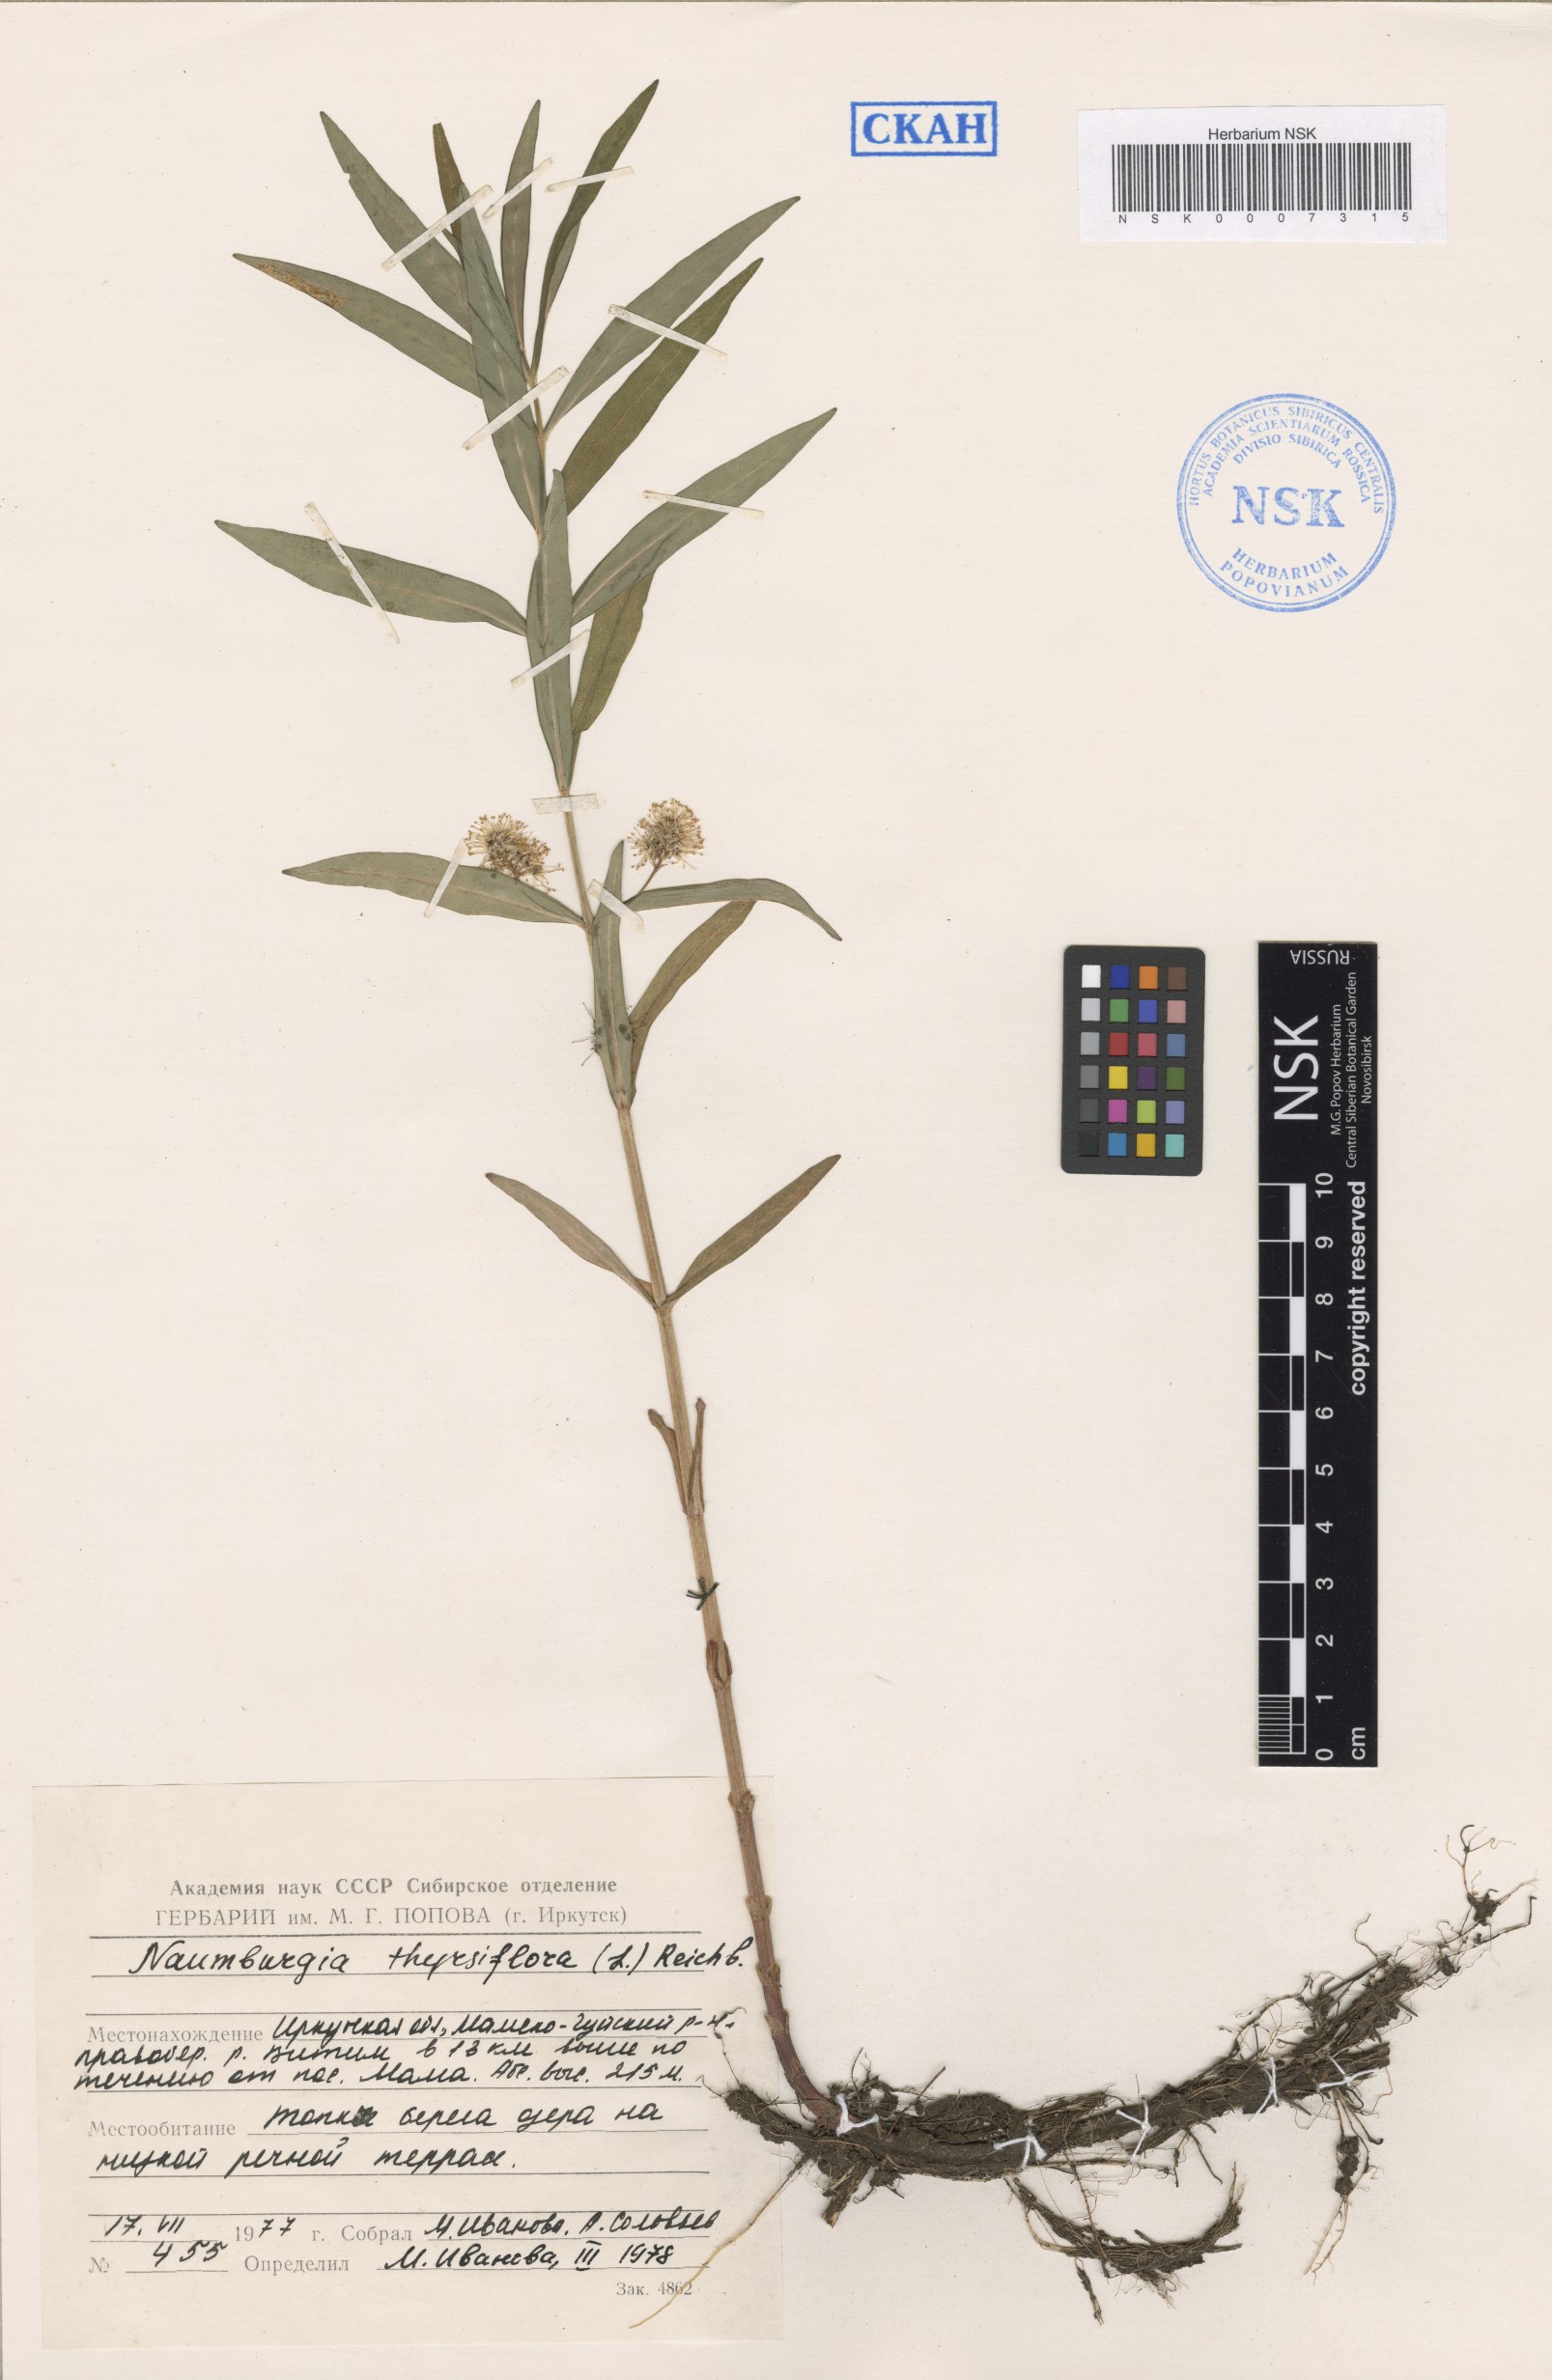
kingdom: Plantae
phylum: Tracheophyta
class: Magnoliopsida
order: Ericales
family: Primulaceae
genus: Lysimachia
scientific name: Lysimachia thyrsiflora
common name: Tufted loosestrife
